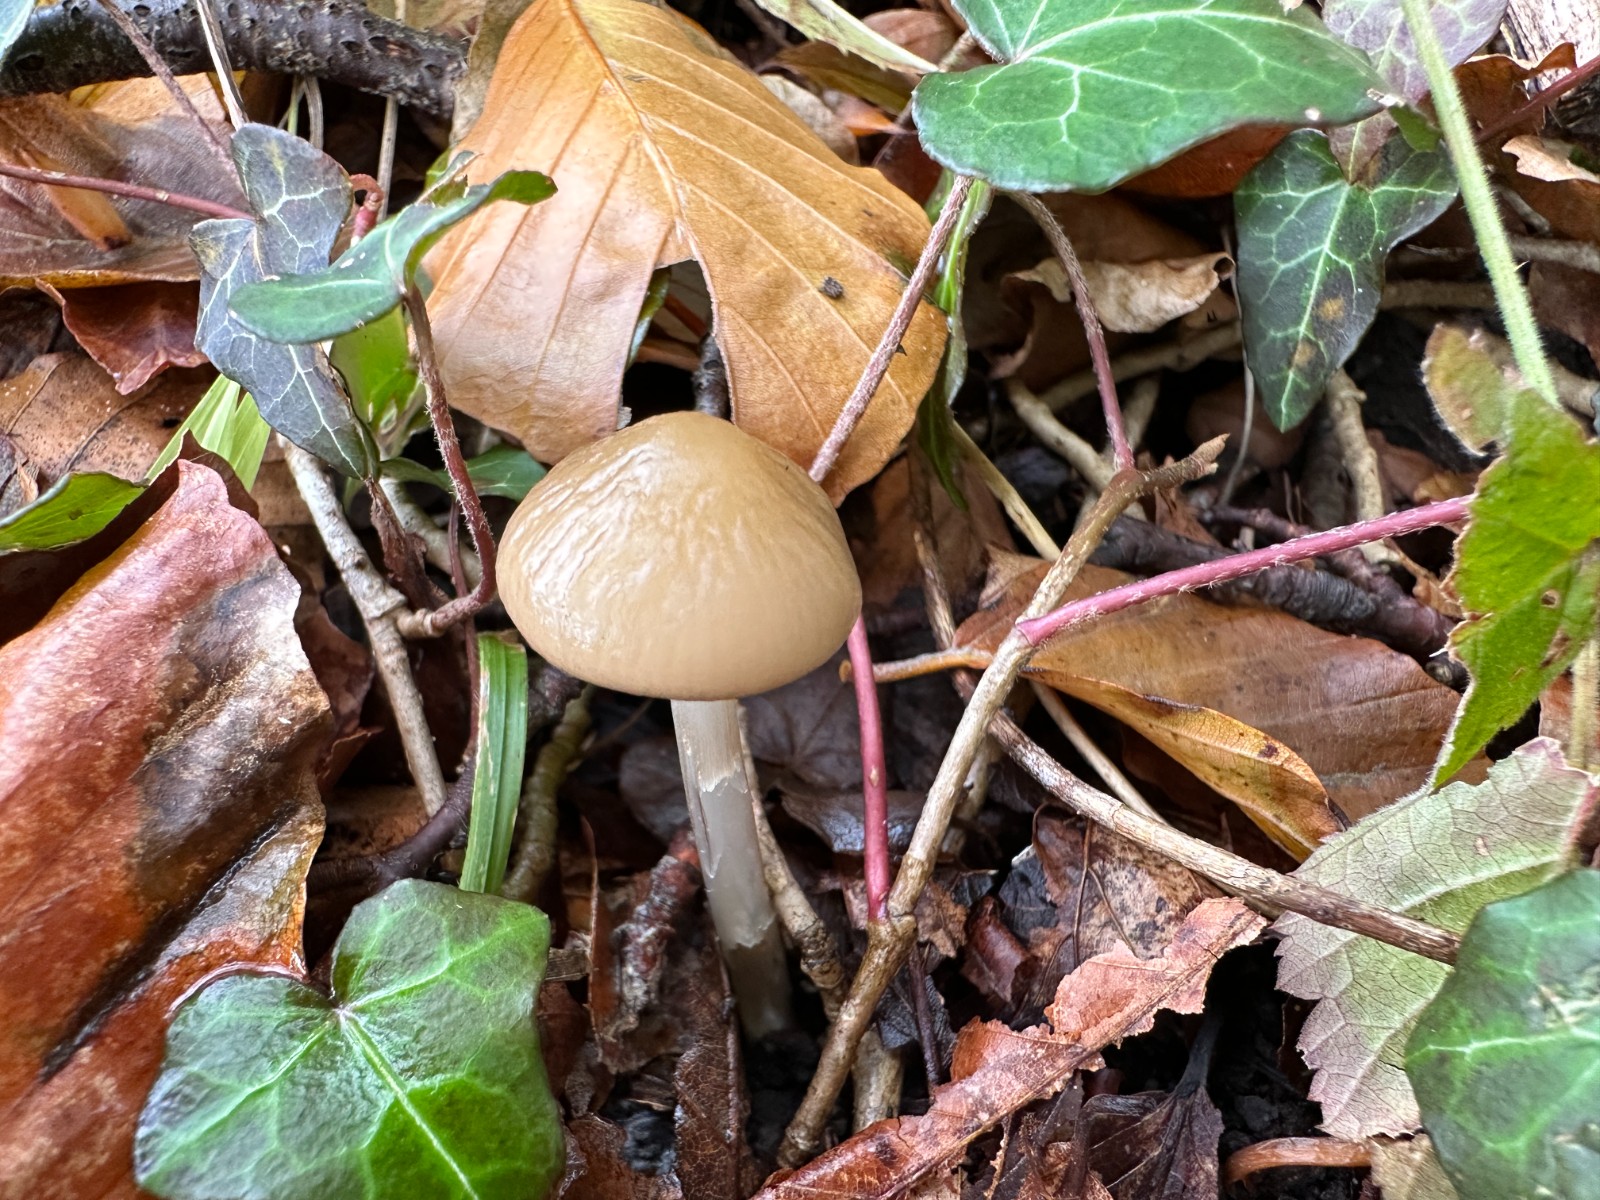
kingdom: Fungi
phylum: Basidiomycota
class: Agaricomycetes
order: Agaricales
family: Physalacriaceae
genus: Hymenopellis
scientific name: Hymenopellis radicata
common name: almindelig pælerodshat
